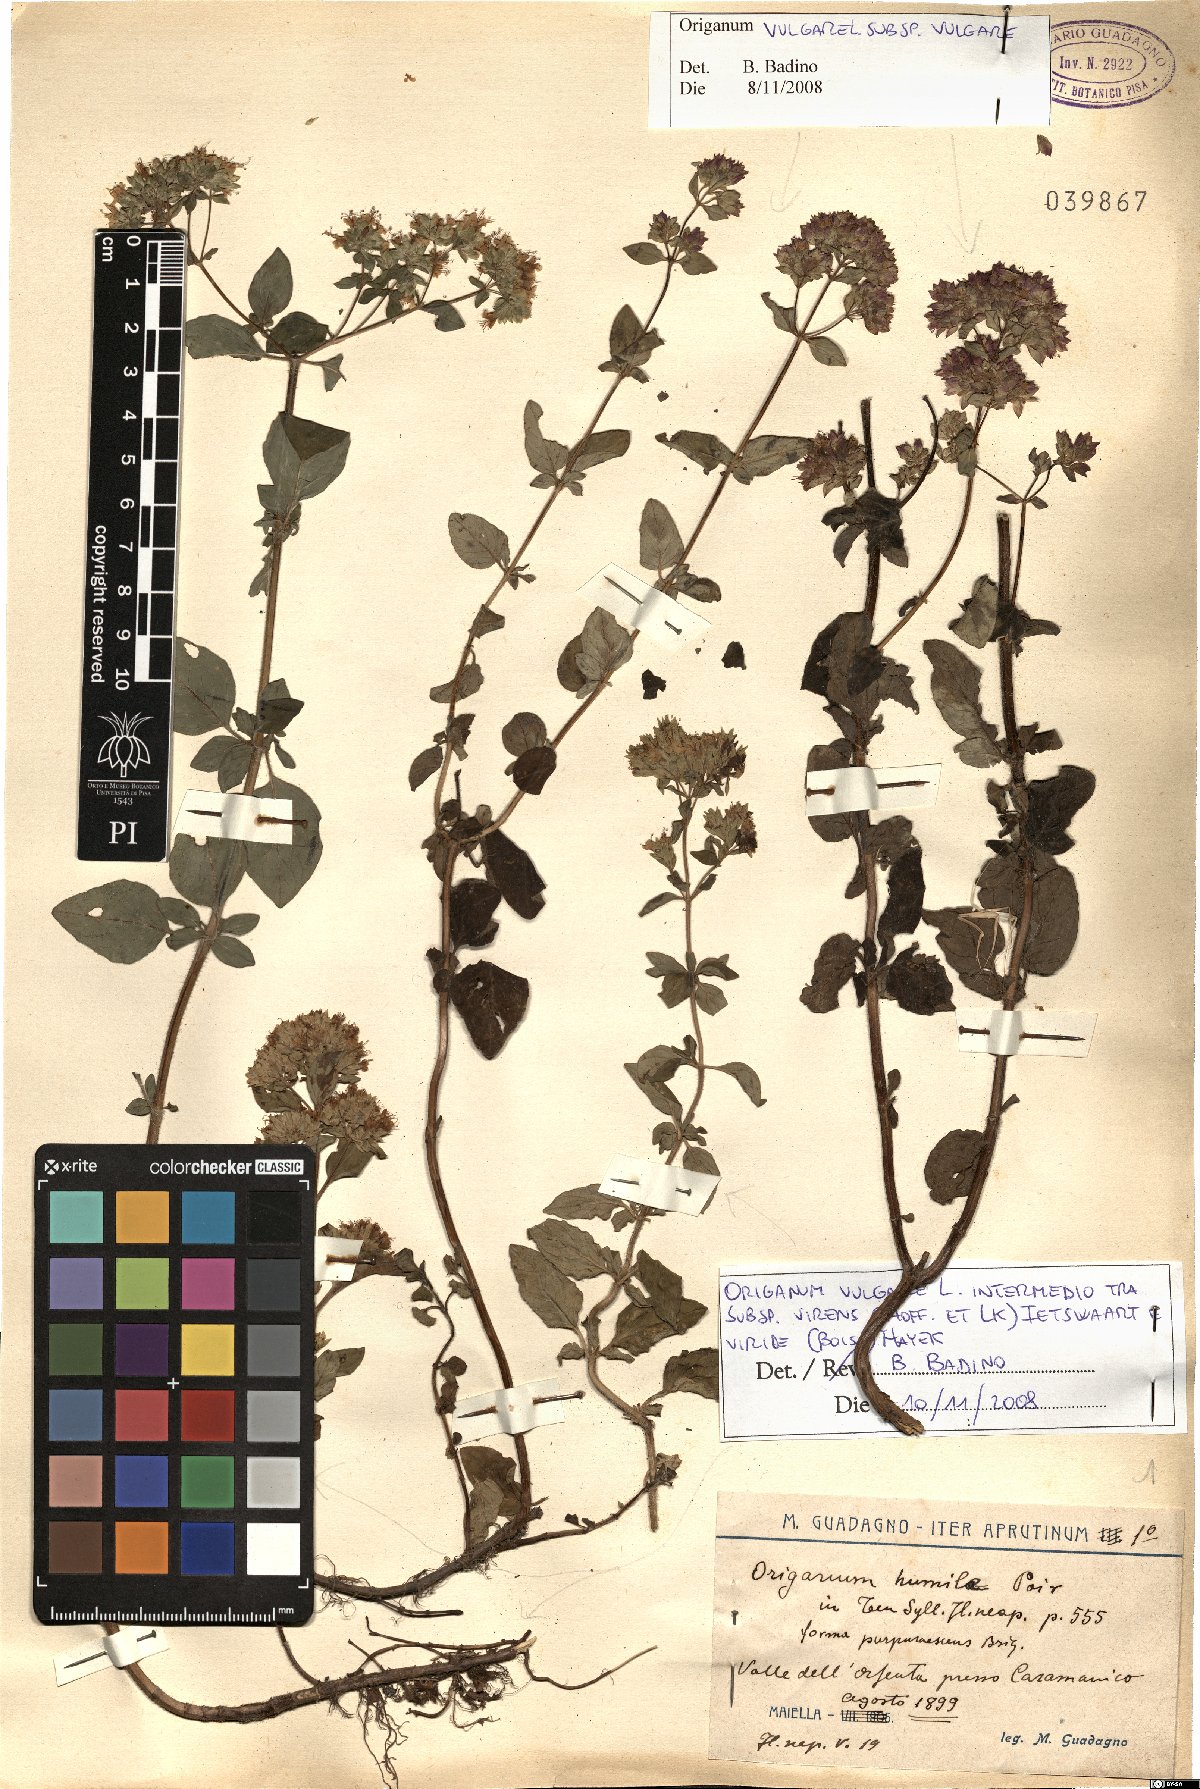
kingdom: Plantae
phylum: Tracheophyta
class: Magnoliopsida
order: Lamiales
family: Lamiaceae
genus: Origanum
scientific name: Origanum vulgare
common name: Wild marjoram
